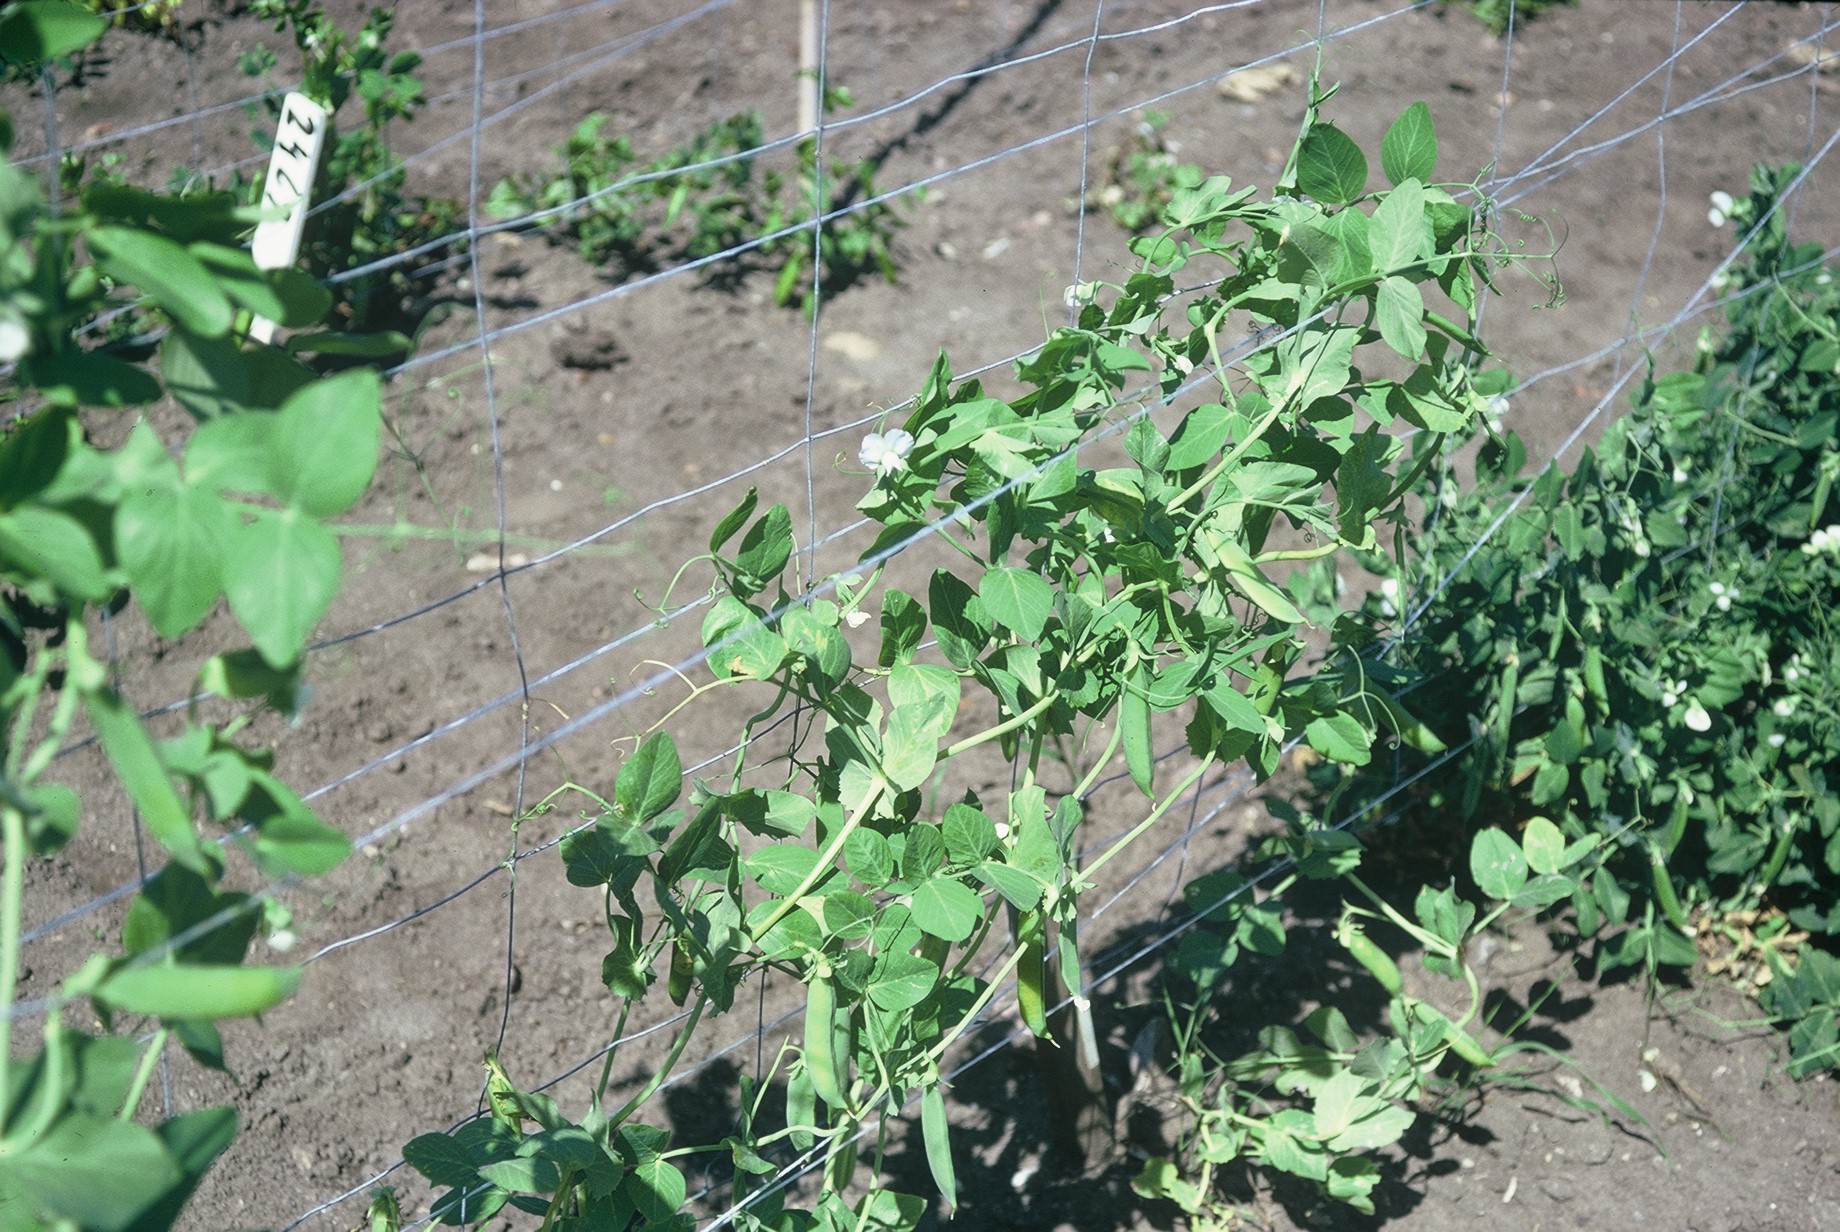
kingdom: Plantae
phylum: Tracheophyta
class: Magnoliopsida
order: Fabales
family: Fabaceae
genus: Lathyrus
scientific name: Lathyrus oleraceus
